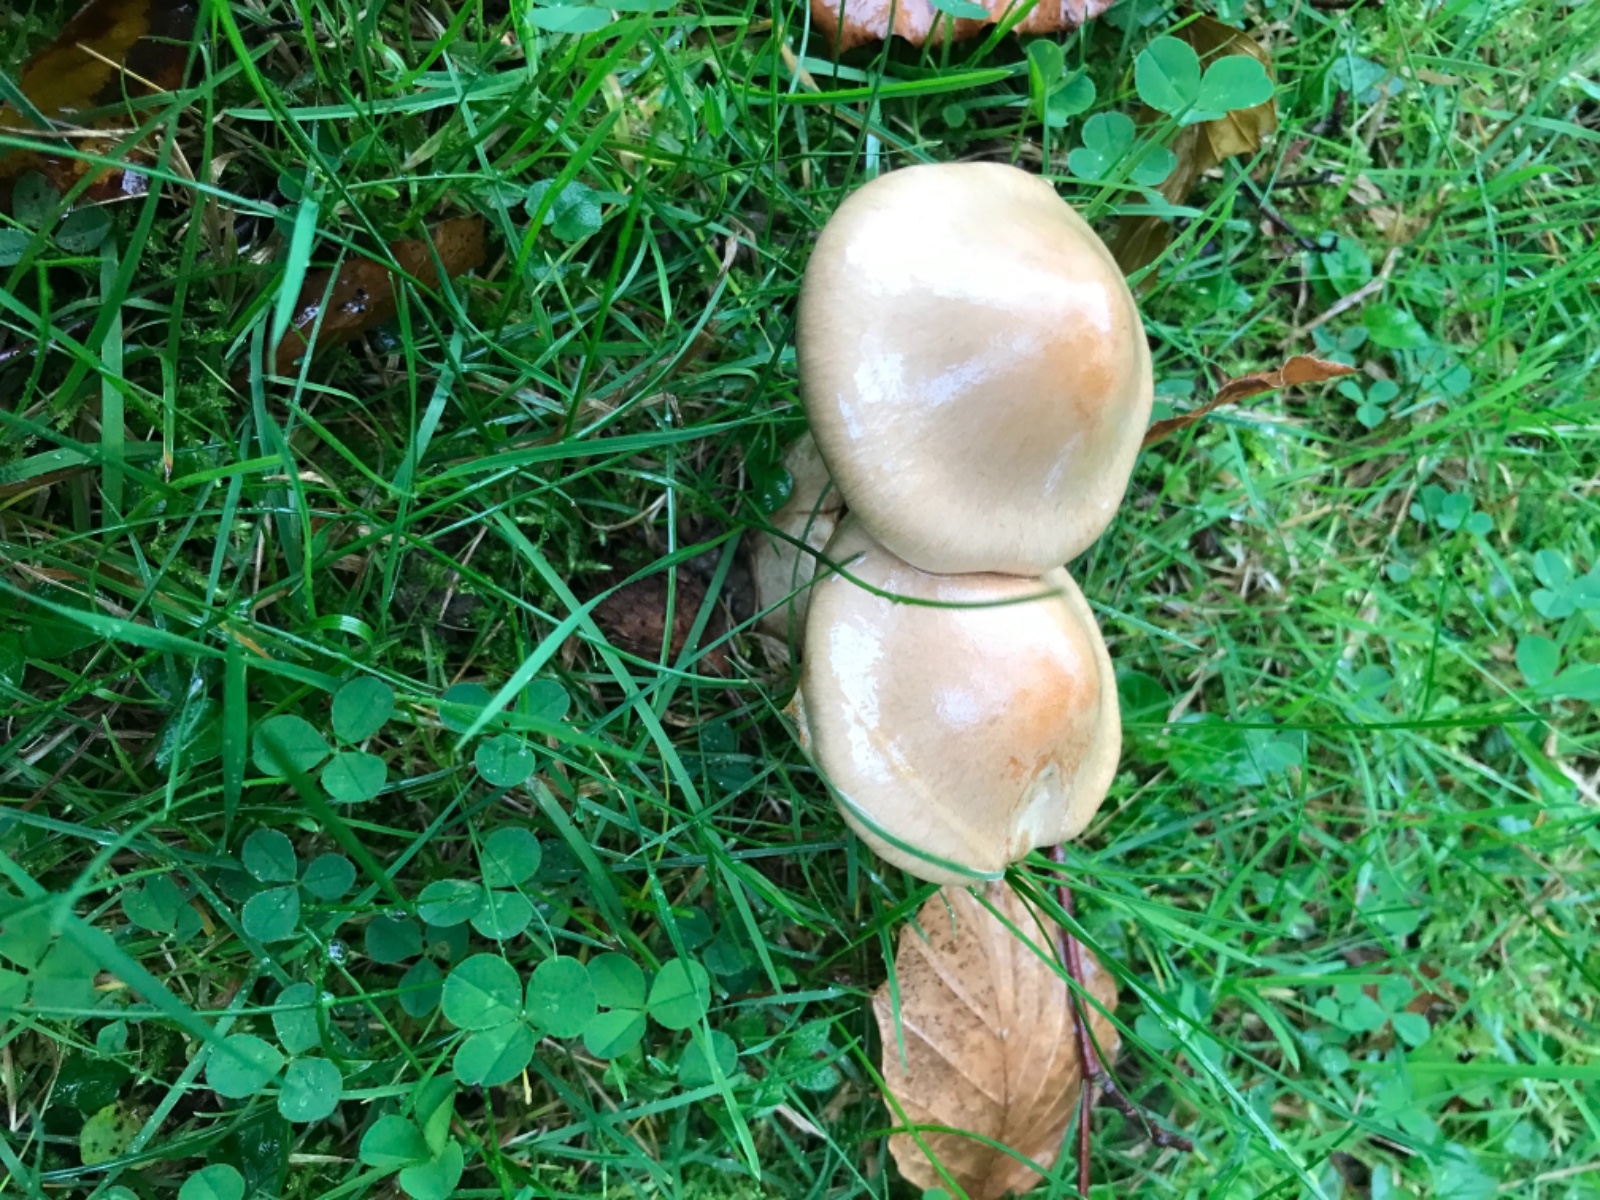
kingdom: Fungi
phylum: Basidiomycota
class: Agaricomycetes
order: Agaricales
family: Cortinariaceae
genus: Cortinarius
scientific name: Cortinarius
